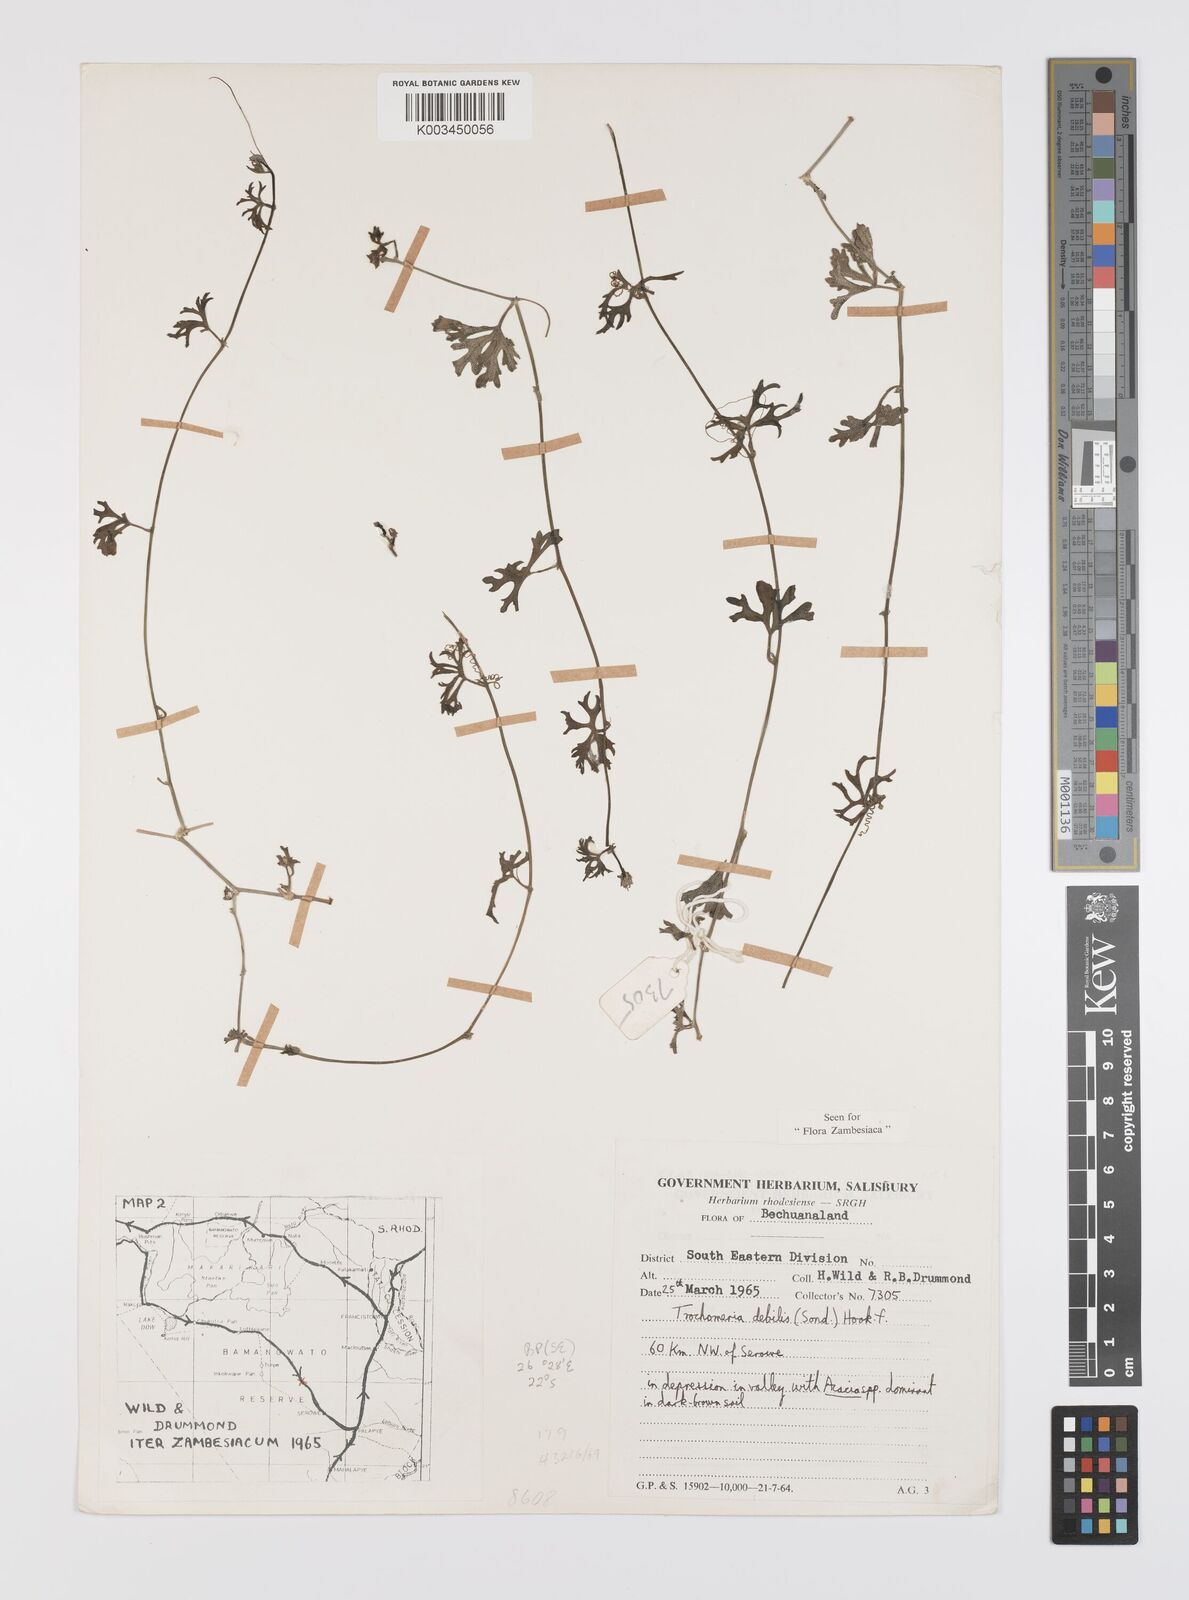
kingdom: Plantae
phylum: Tracheophyta
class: Magnoliopsida
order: Cucurbitales
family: Cucurbitaceae
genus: Trochomeria
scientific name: Trochomeria debilis
